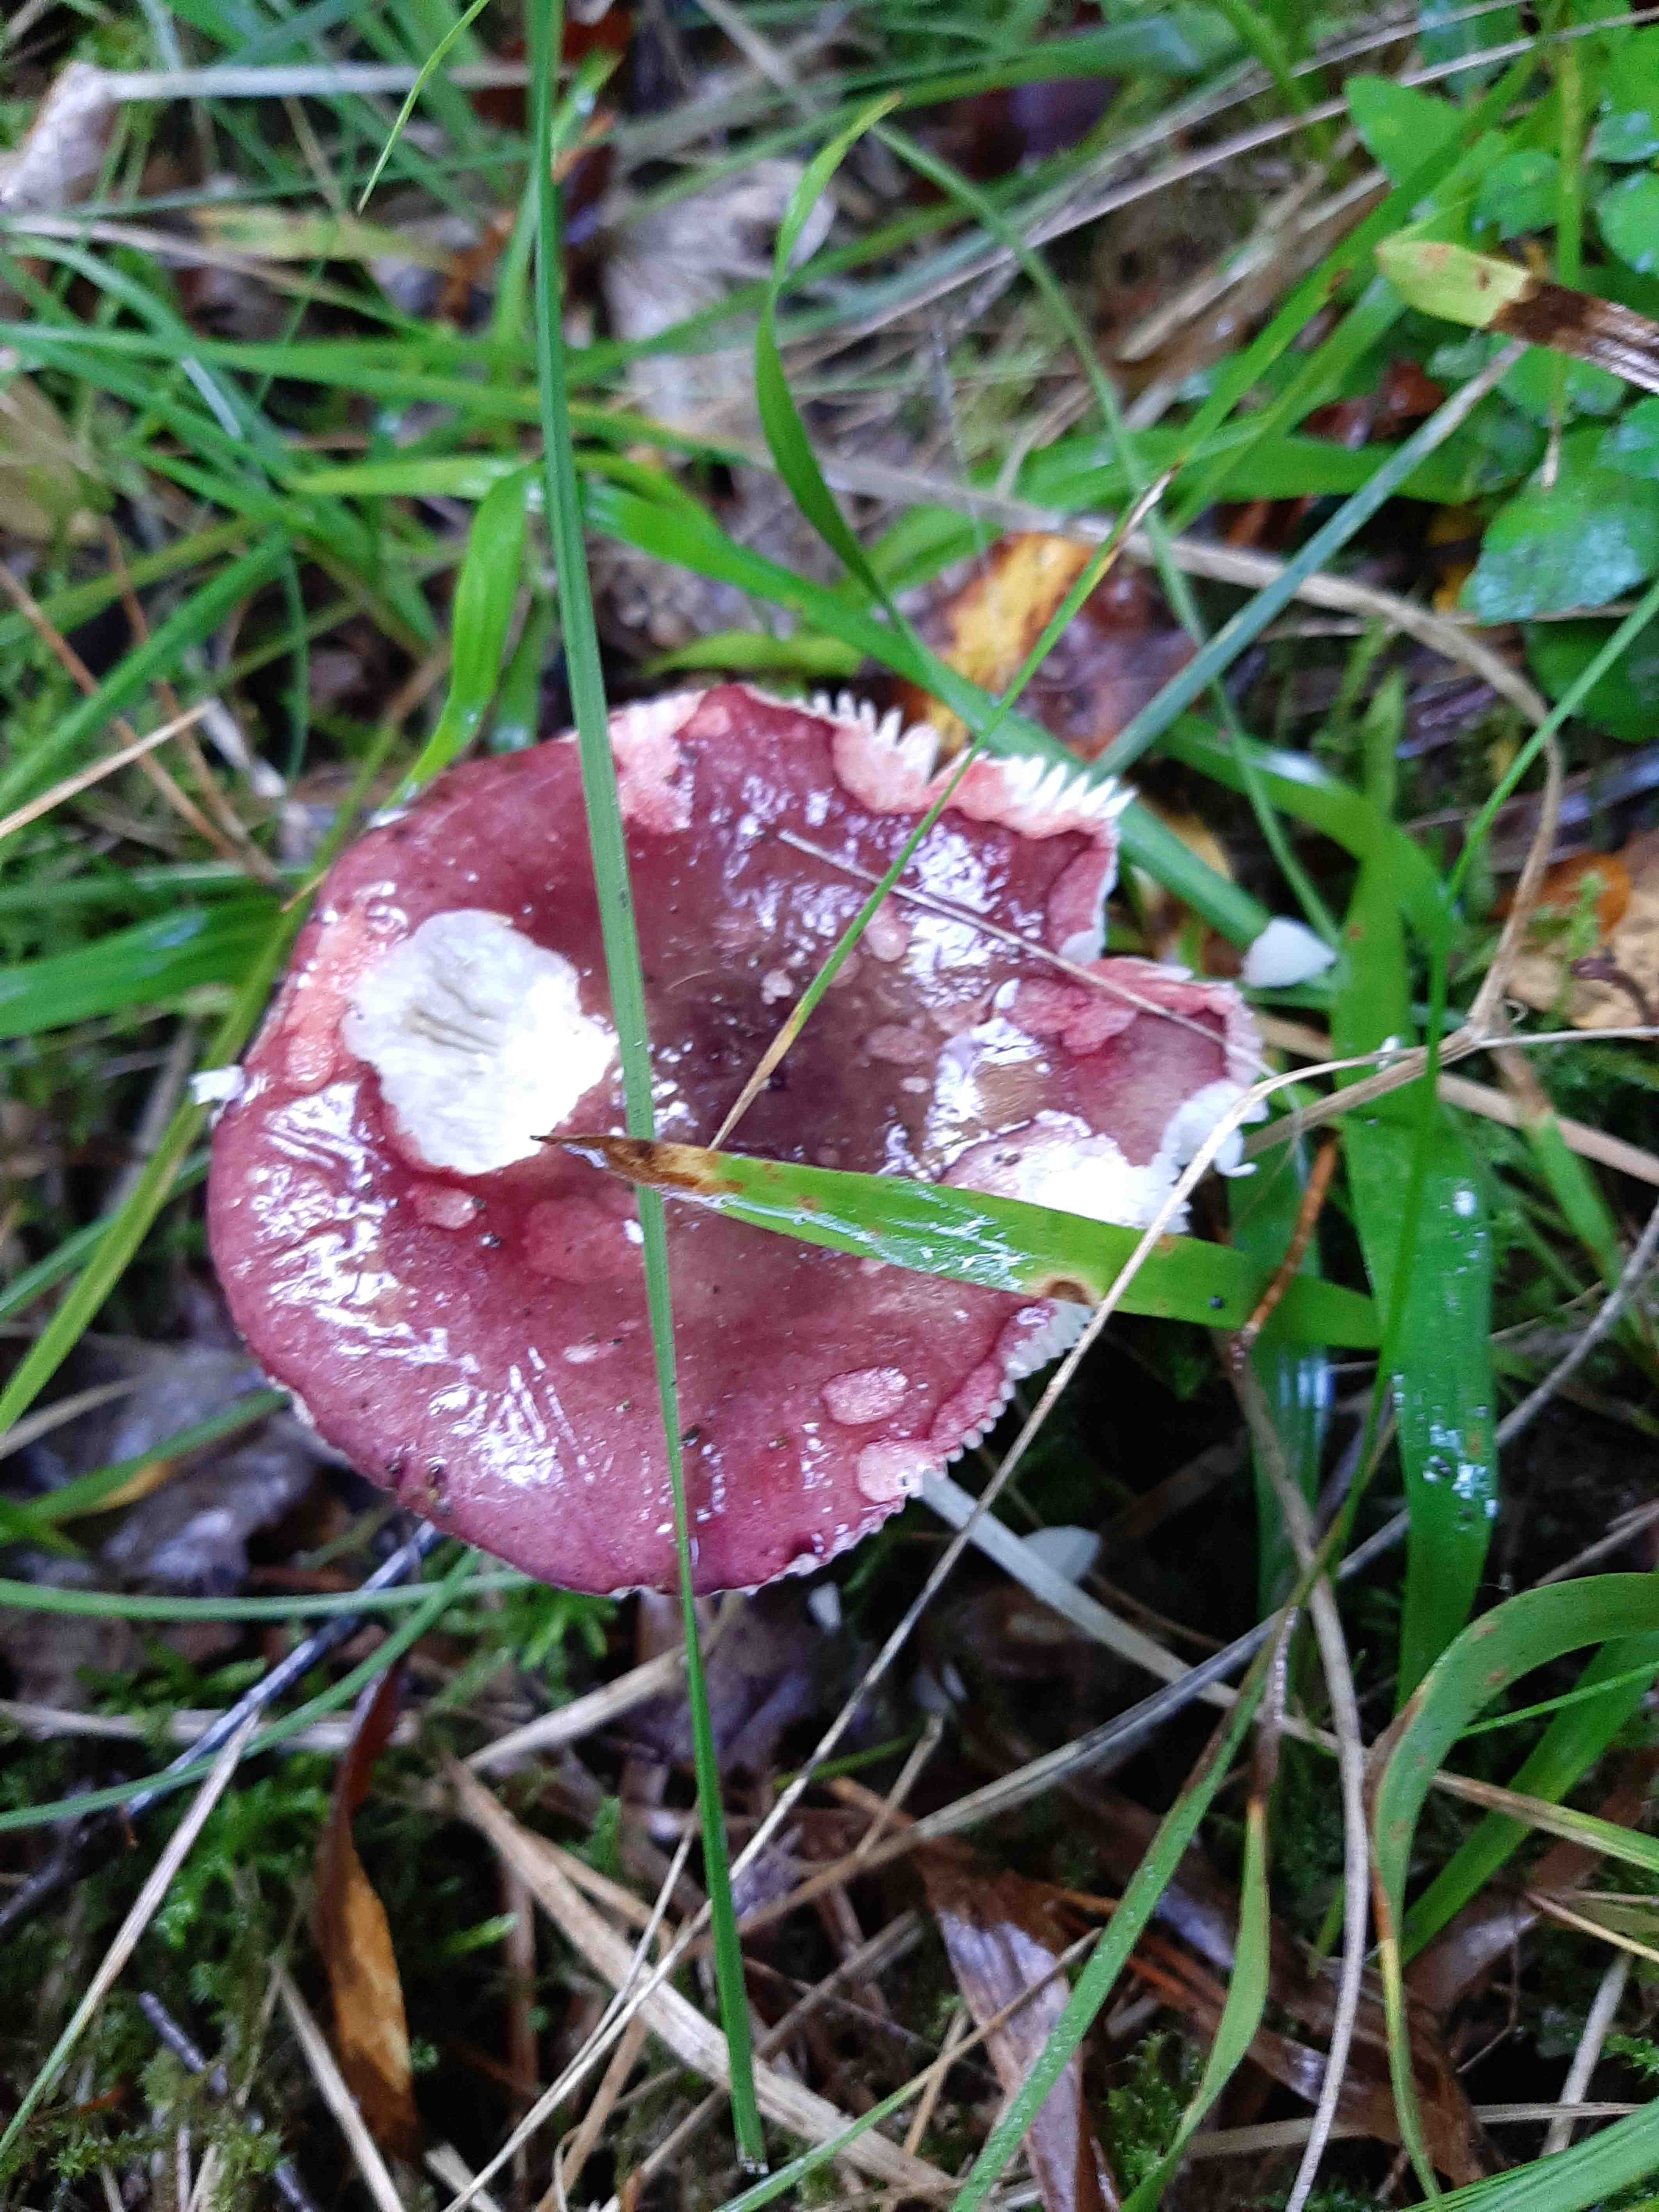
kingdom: Fungi
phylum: Basidiomycota
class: Agaricomycetes
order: Russulales
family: Russulaceae
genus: Russula
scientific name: Russula queletii
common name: Quélets skørhat
